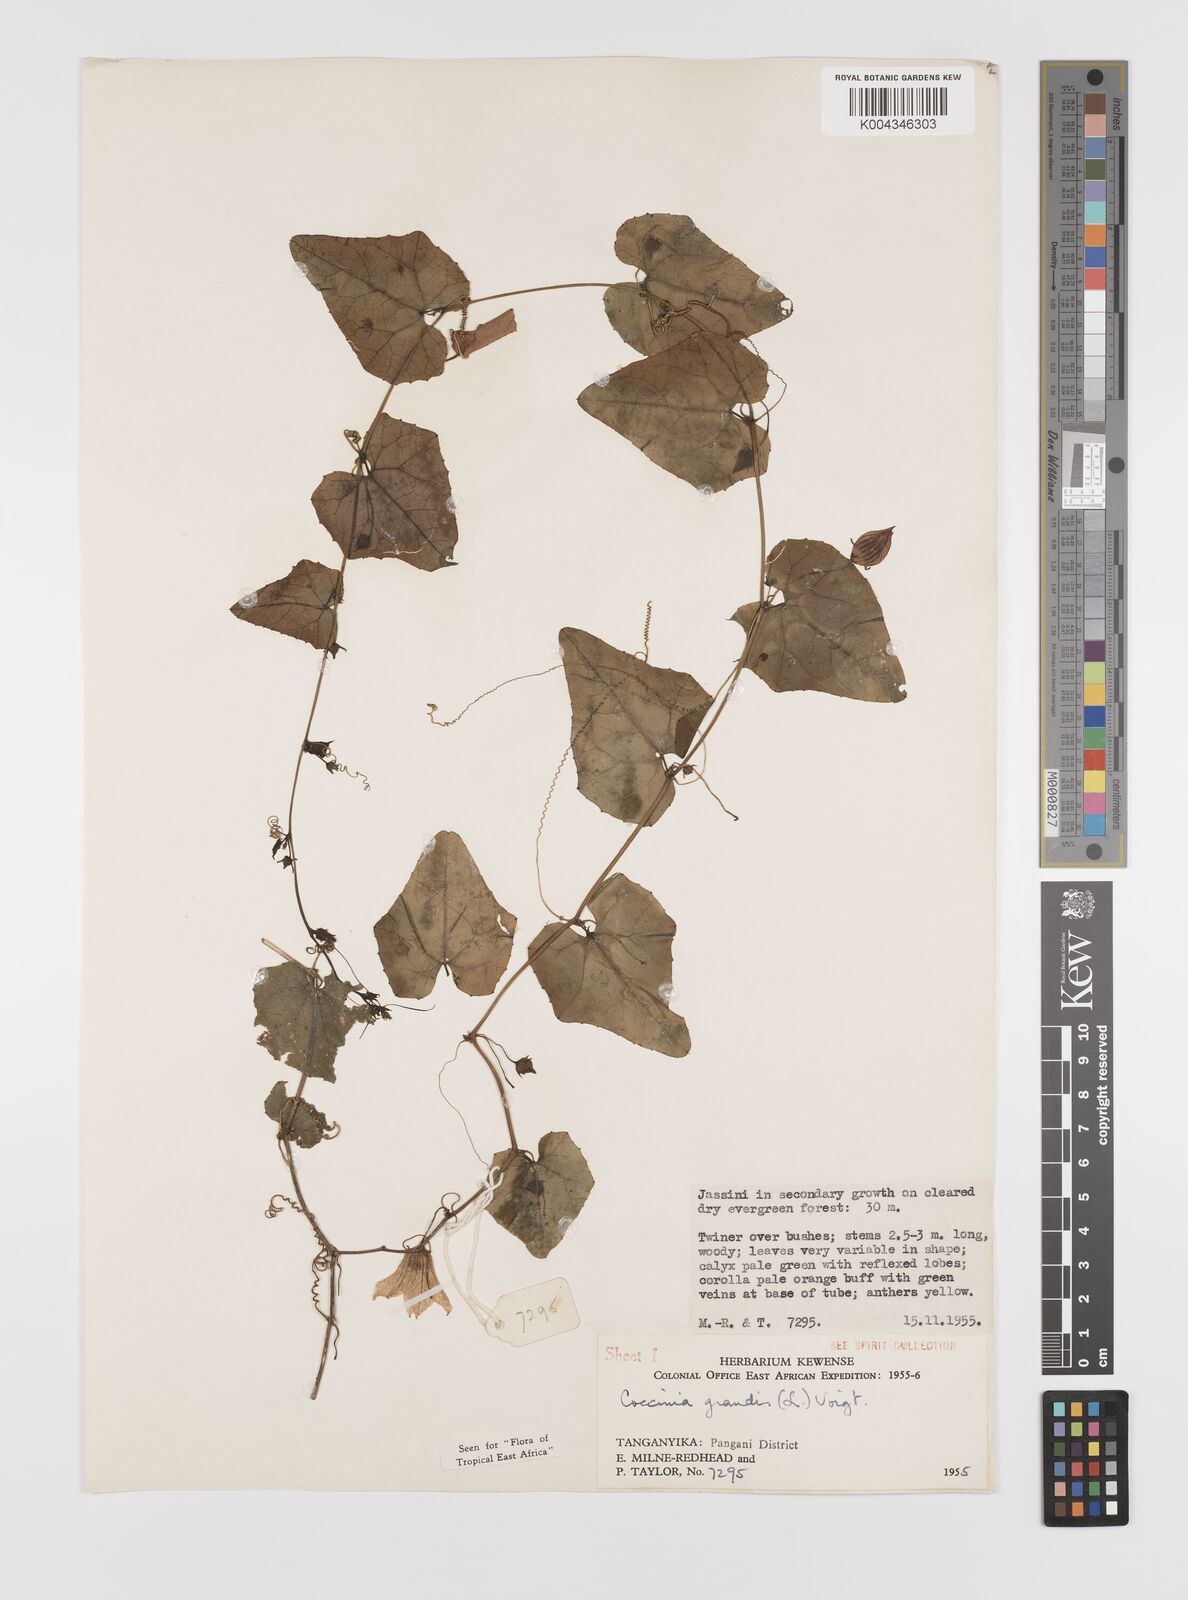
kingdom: Plantae
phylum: Tracheophyta
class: Magnoliopsida
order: Cucurbitales
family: Cucurbitaceae
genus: Coccinia
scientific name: Coccinia grandis
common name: Ivy gourd
